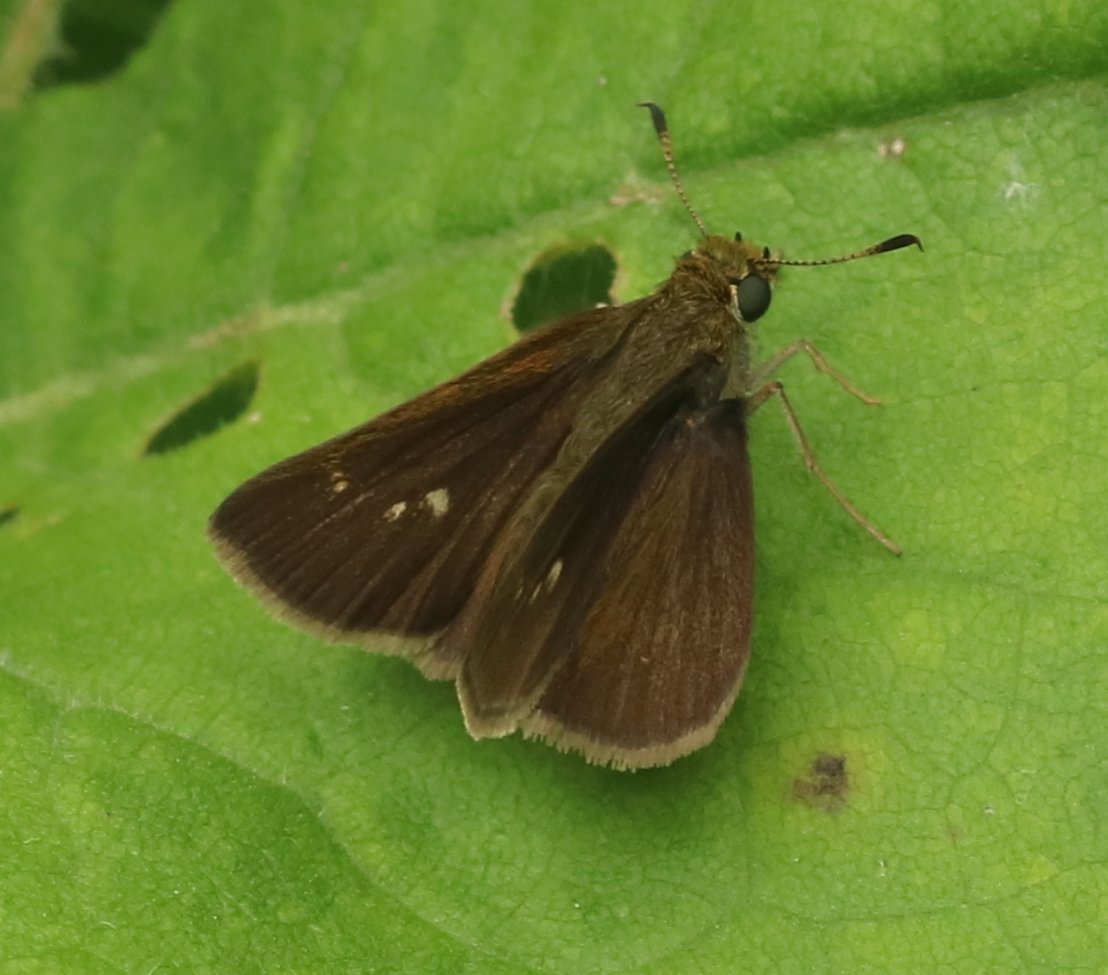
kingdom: Animalia
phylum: Arthropoda
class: Insecta
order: Lepidoptera
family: Hesperiidae
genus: Euphyes
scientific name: Euphyes vestris
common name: Dun Skipper
